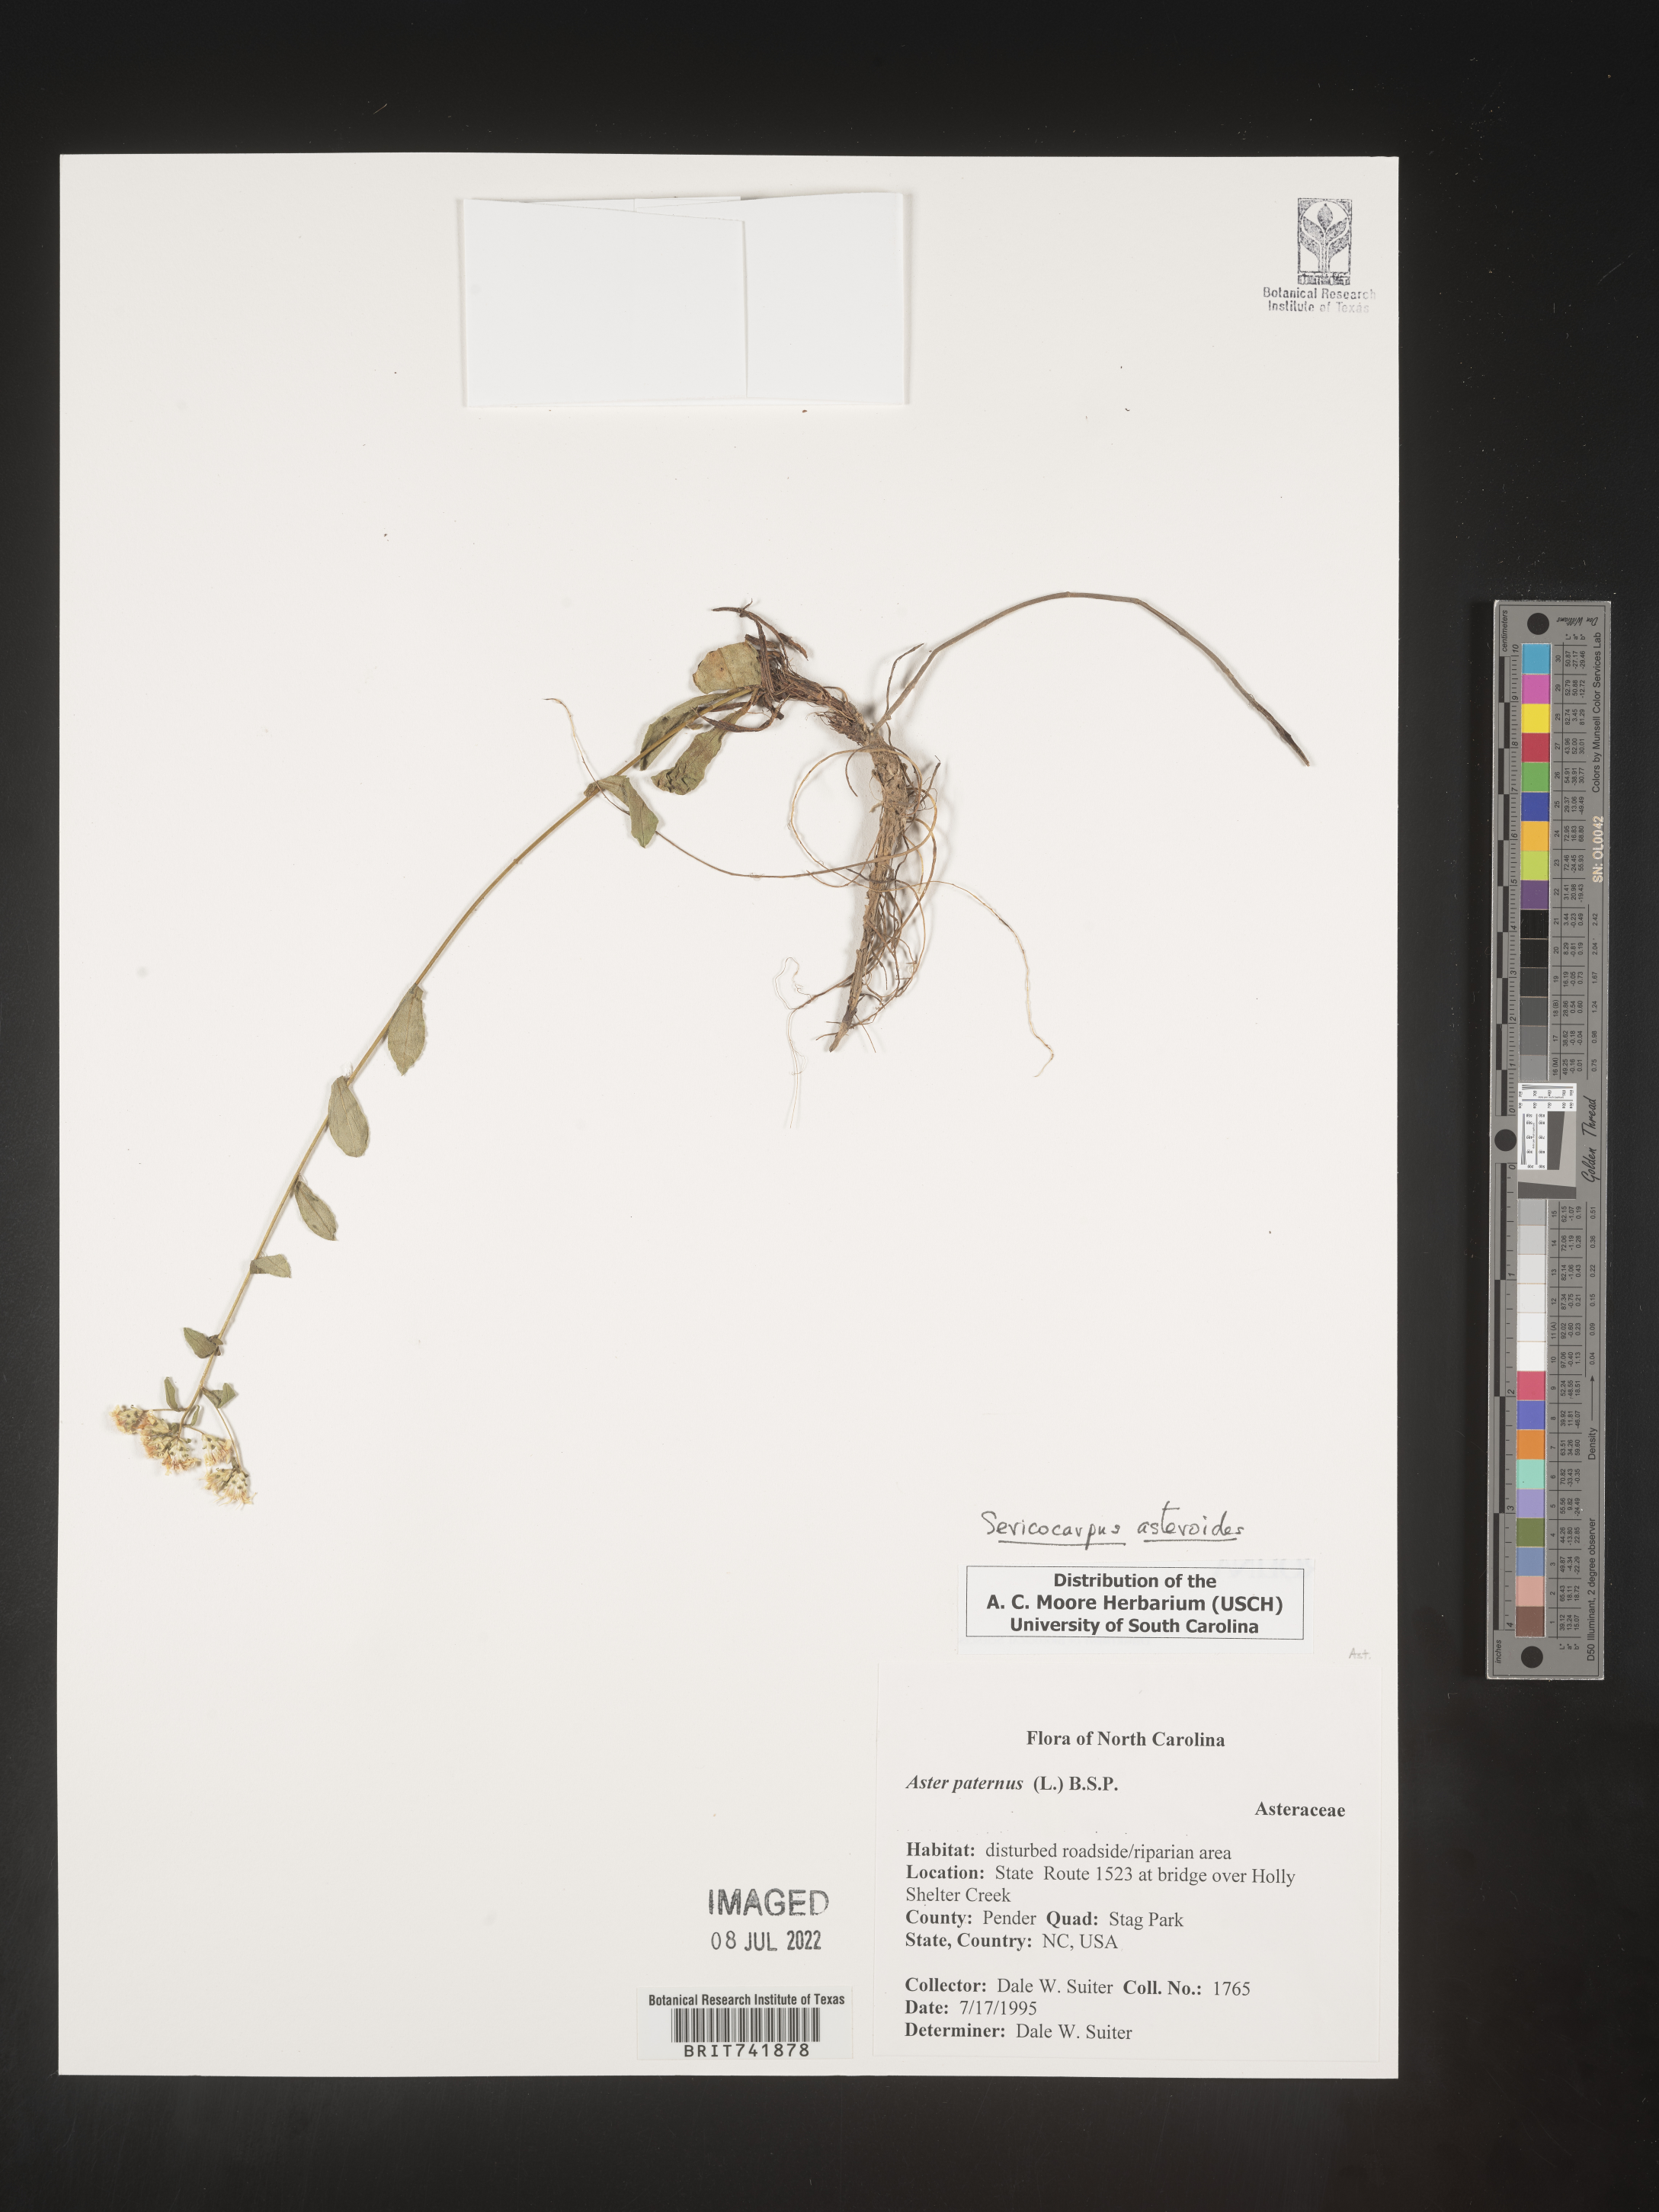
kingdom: Plantae
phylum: Tracheophyta
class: Magnoliopsida
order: Asterales
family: Asteraceae
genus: Sericocarpus
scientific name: Sericocarpus asteroides
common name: Toothed white-top aster
